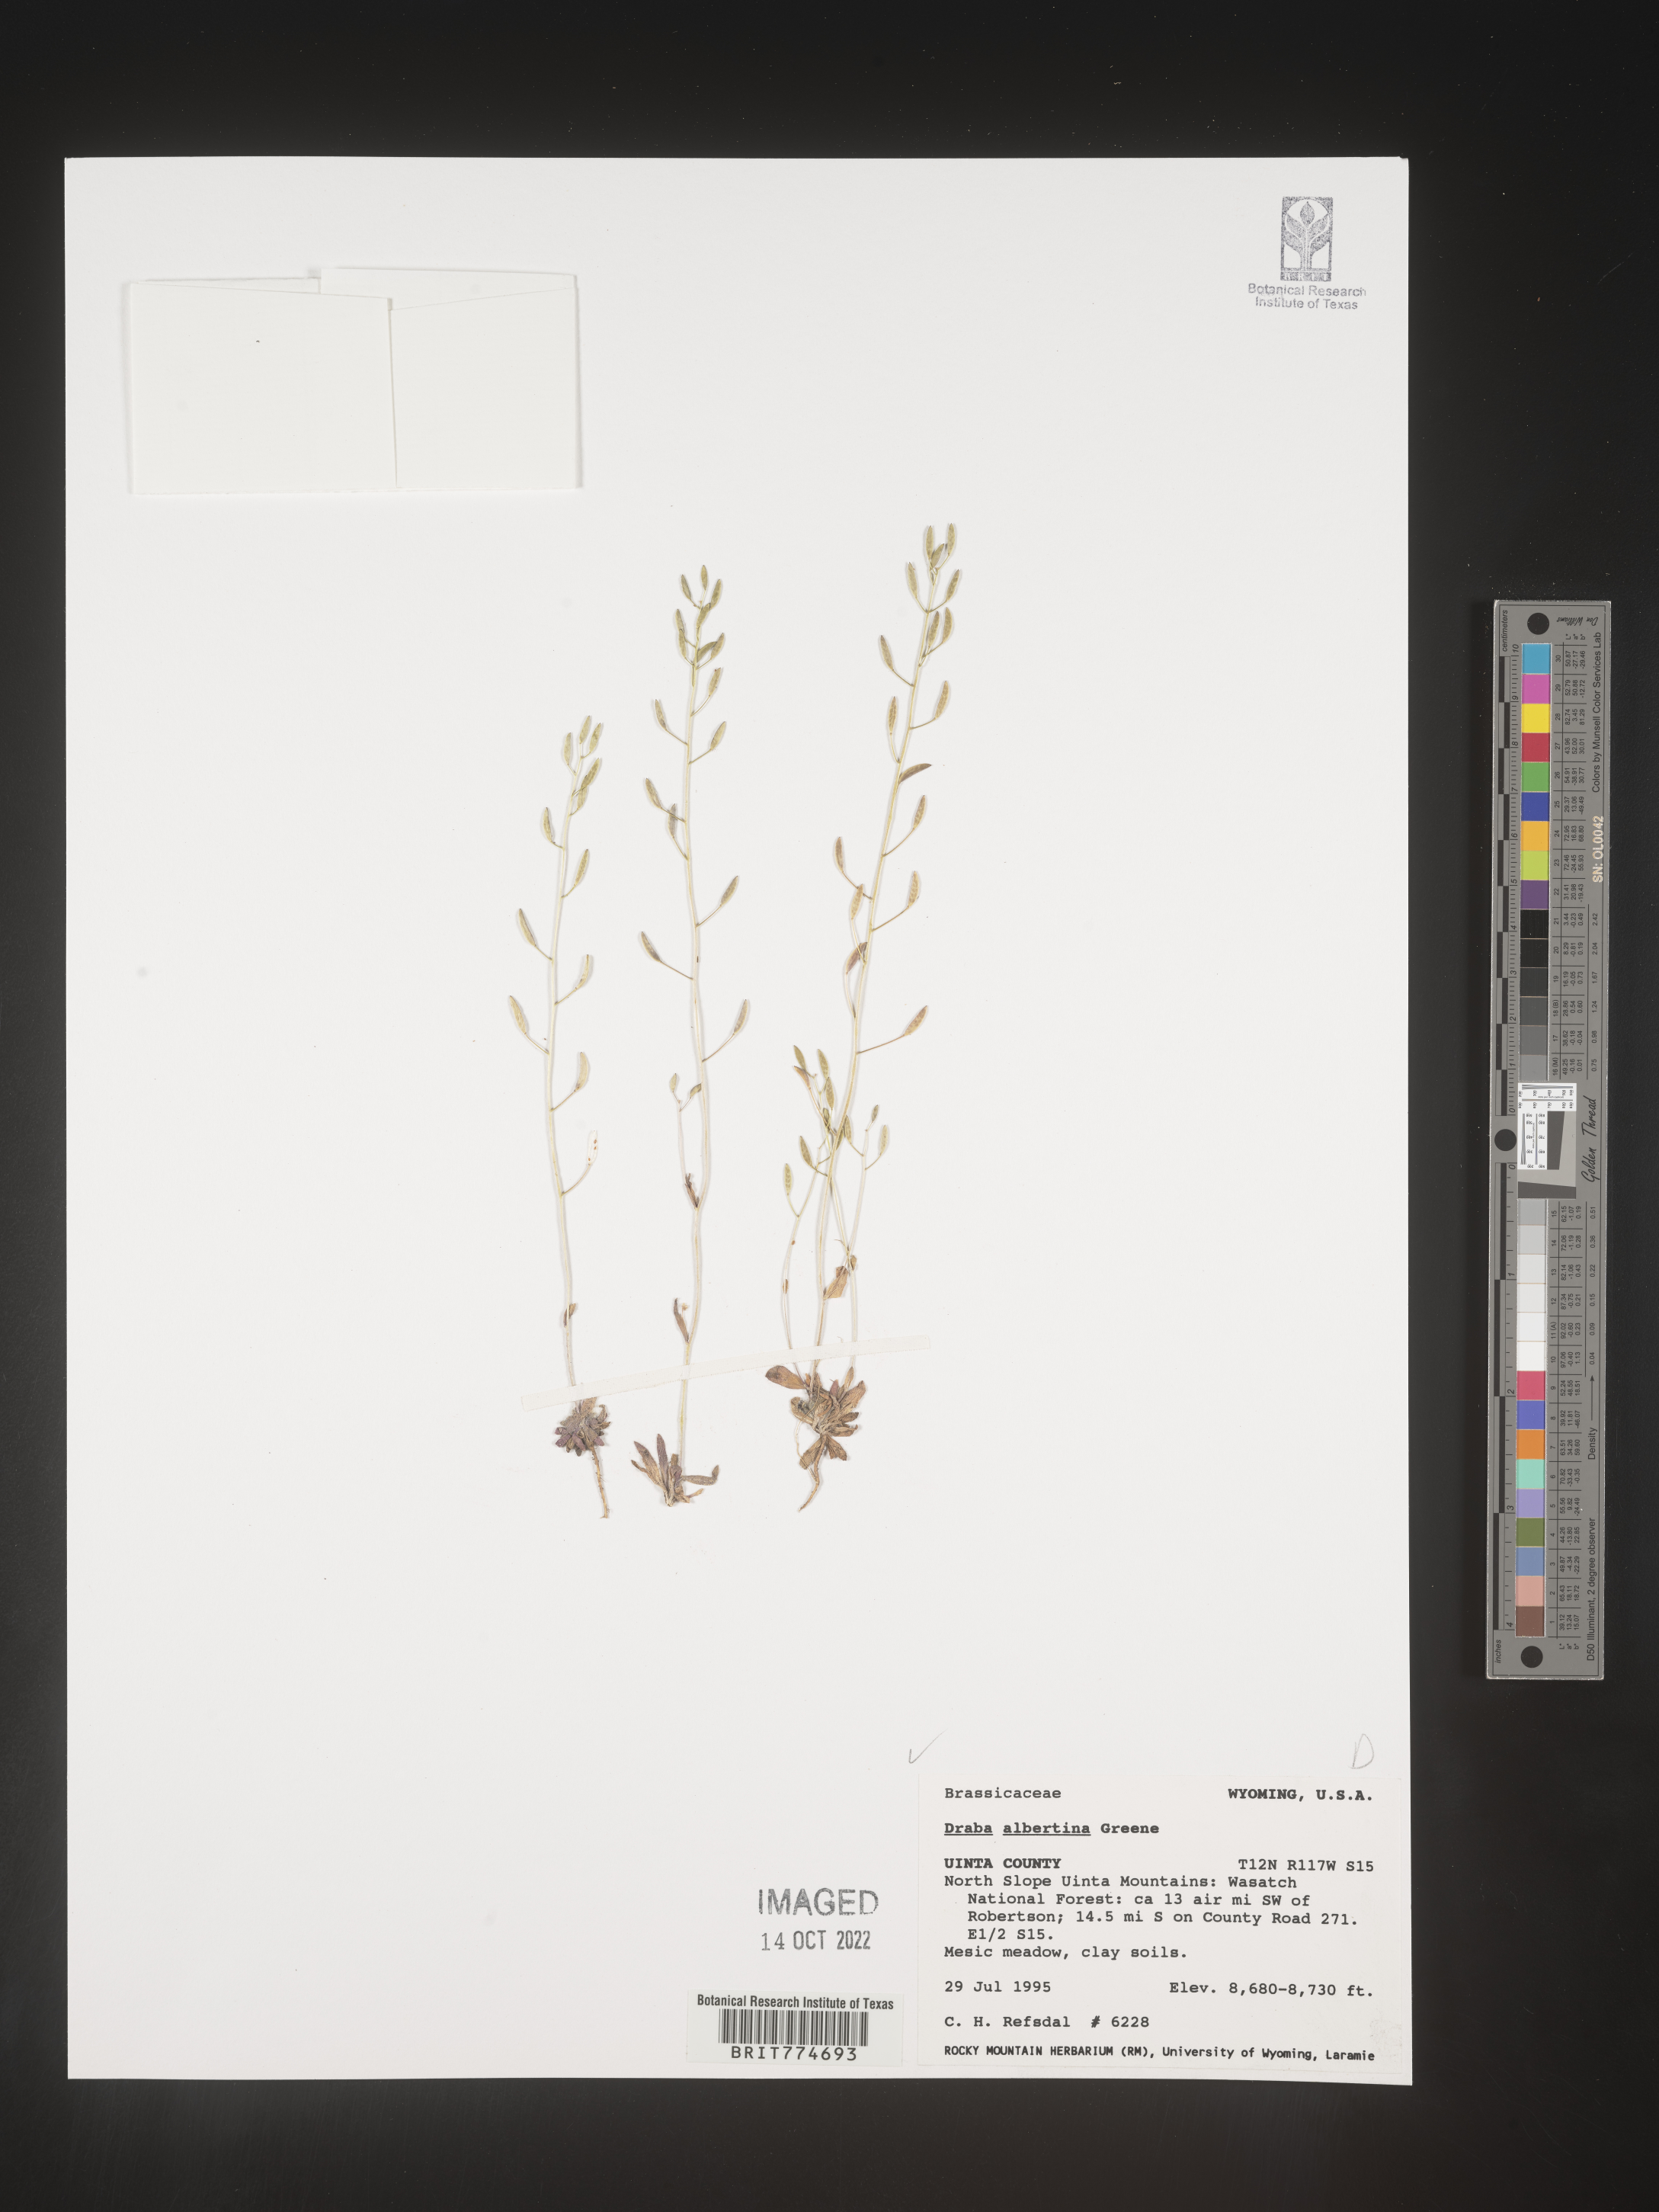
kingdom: Plantae
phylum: Tracheophyta
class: Magnoliopsida
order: Brassicales
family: Brassicaceae
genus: Draba
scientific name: Draba
